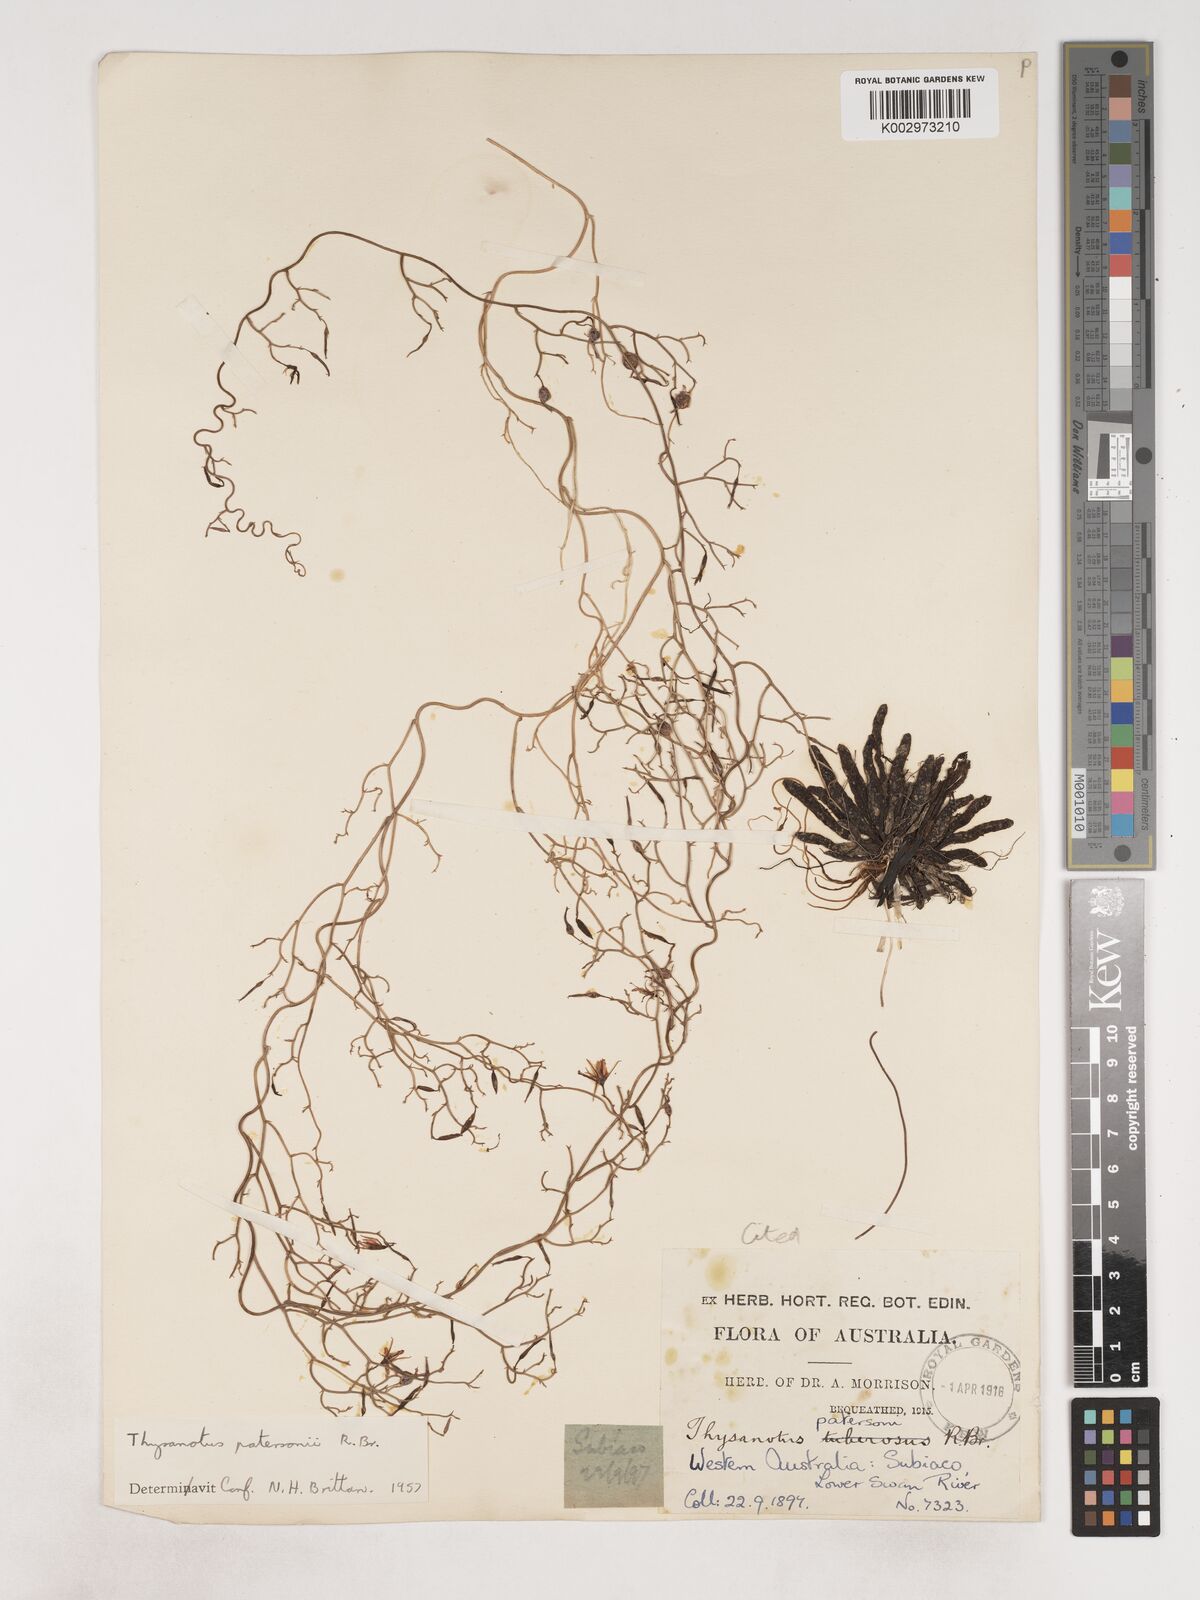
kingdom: Plantae
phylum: Tracheophyta
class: Liliopsida
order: Asparagales
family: Asparagaceae
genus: Thysanotus
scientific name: Thysanotus patersonii
